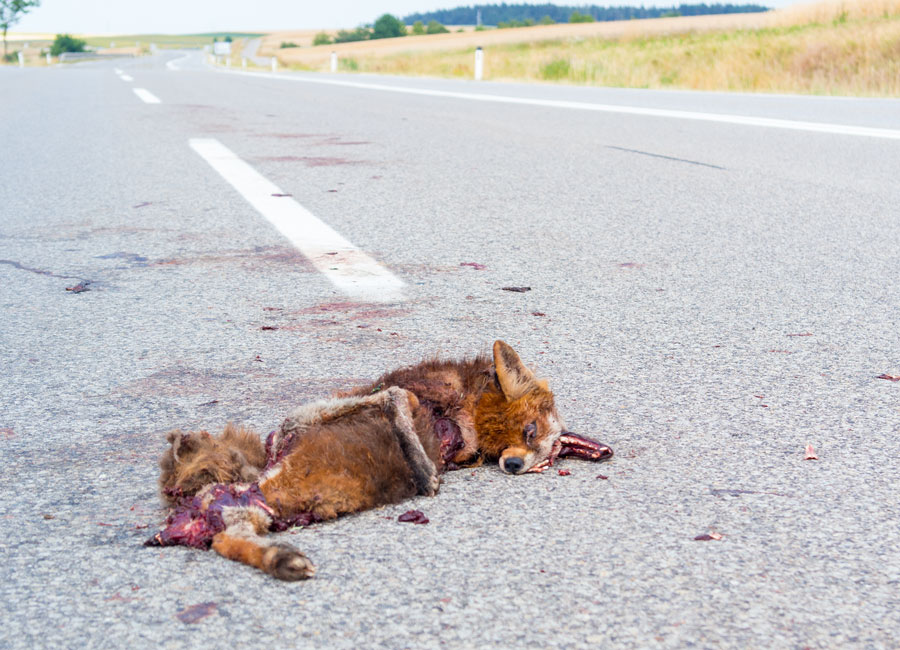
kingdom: Animalia
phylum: Chordata
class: Mammalia
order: Carnivora
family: Canidae
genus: Vulpes
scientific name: Vulpes vulpes
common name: Red fox
